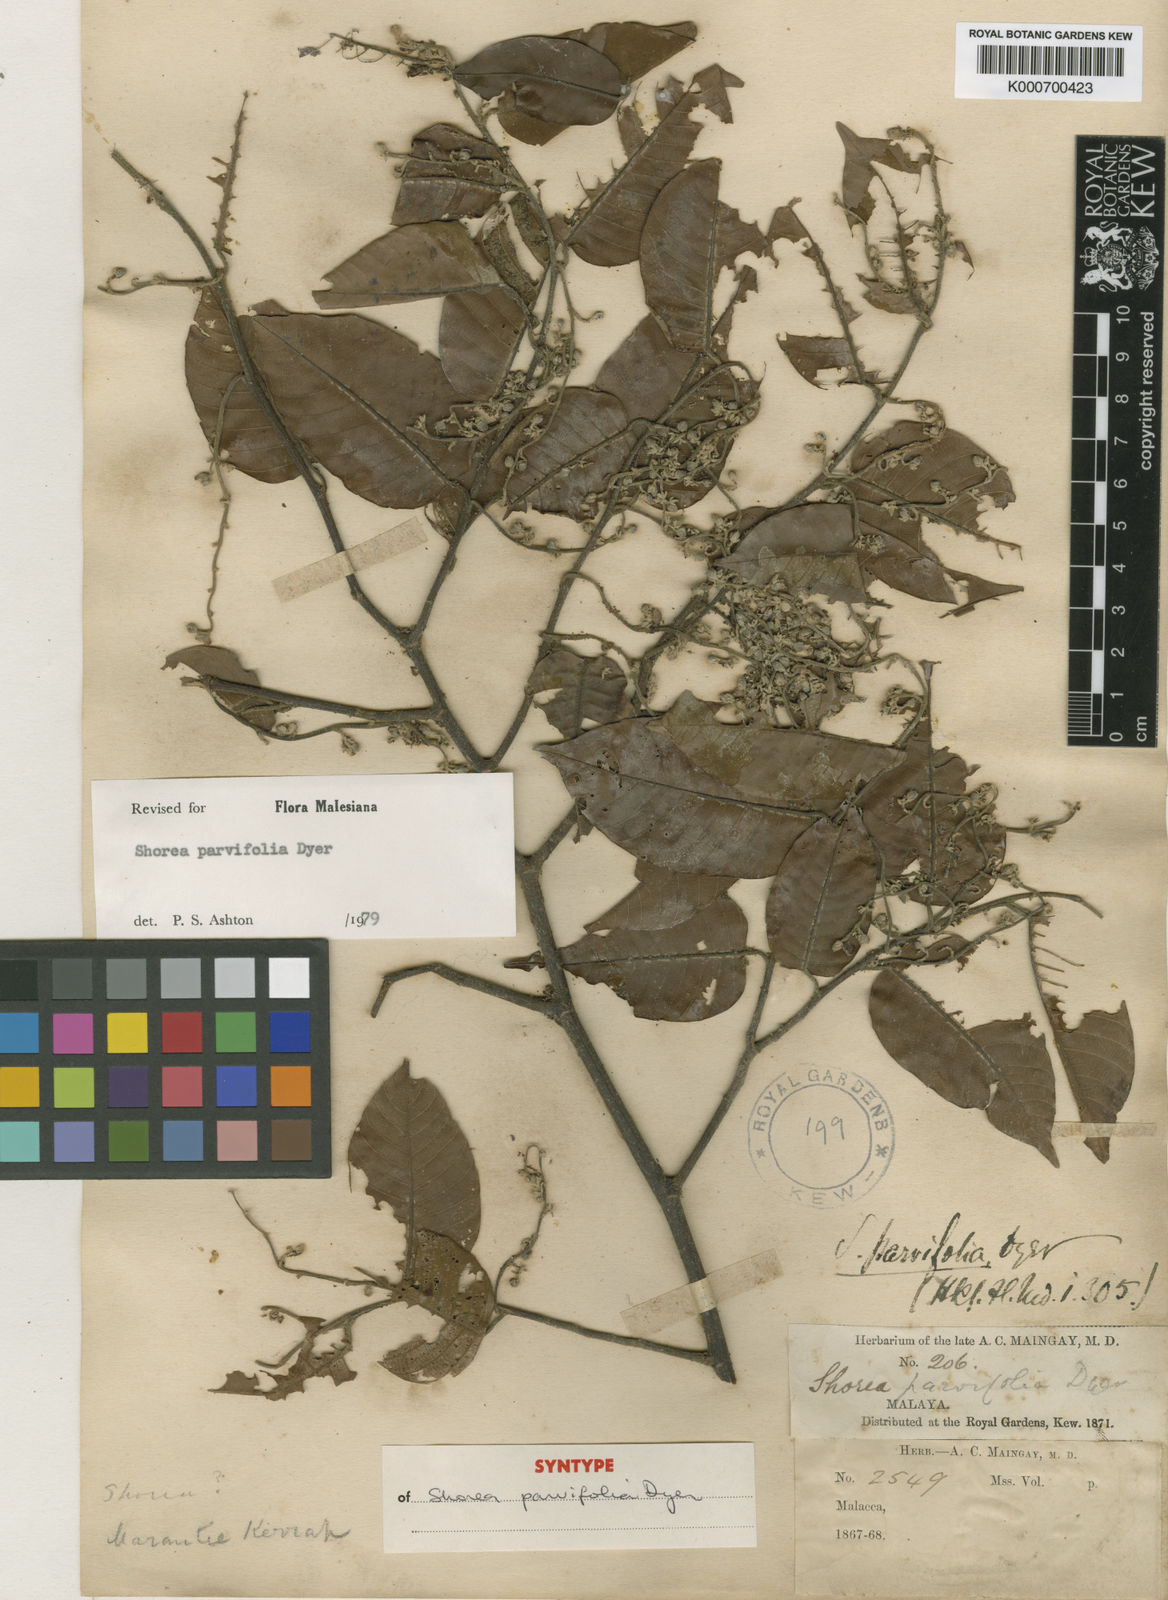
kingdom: Plantae
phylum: Tracheophyta
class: Magnoliopsida
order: Malvales
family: Dipterocarpaceae
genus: Shorea
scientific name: Shorea parvifolia
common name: Light red meranti
